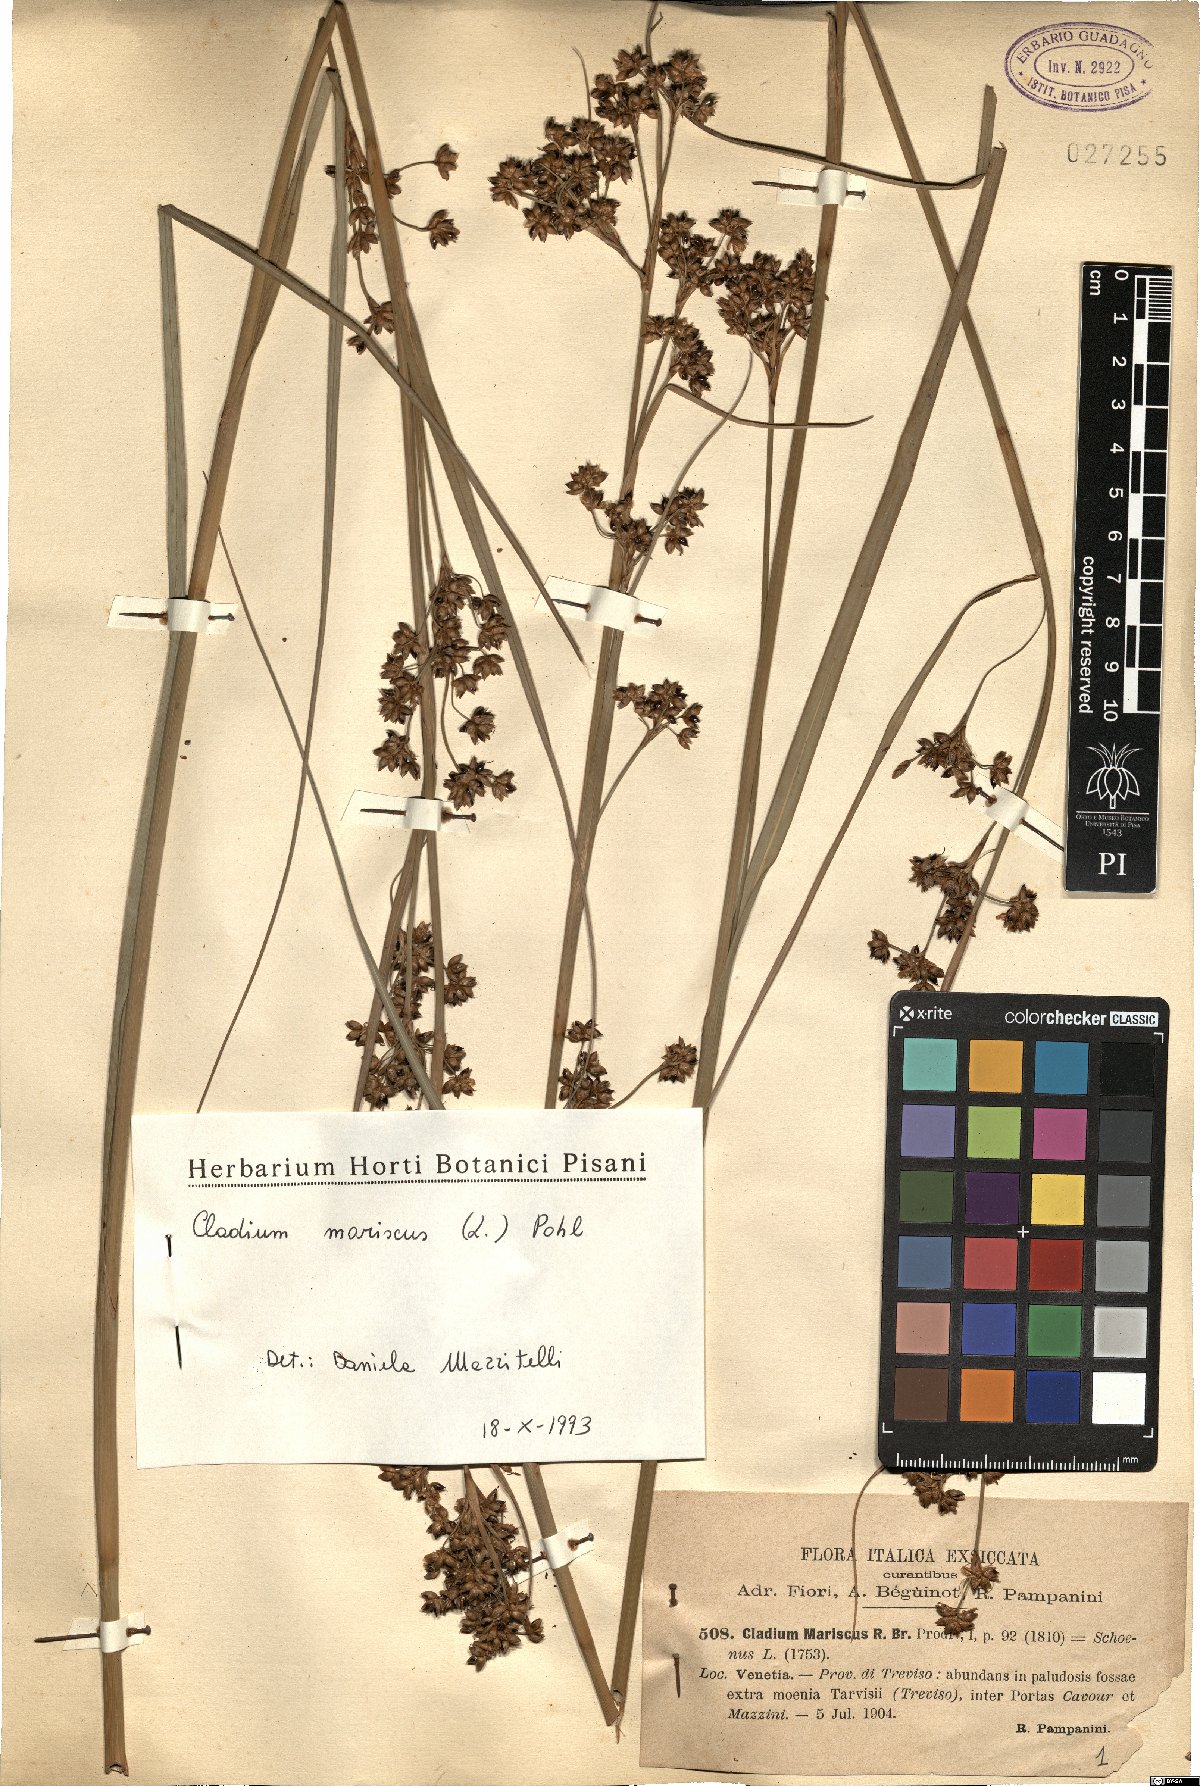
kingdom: Plantae
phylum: Tracheophyta
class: Liliopsida
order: Poales
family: Cyperaceae
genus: Cladium
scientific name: Cladium mariscus
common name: Great fen-sedge
